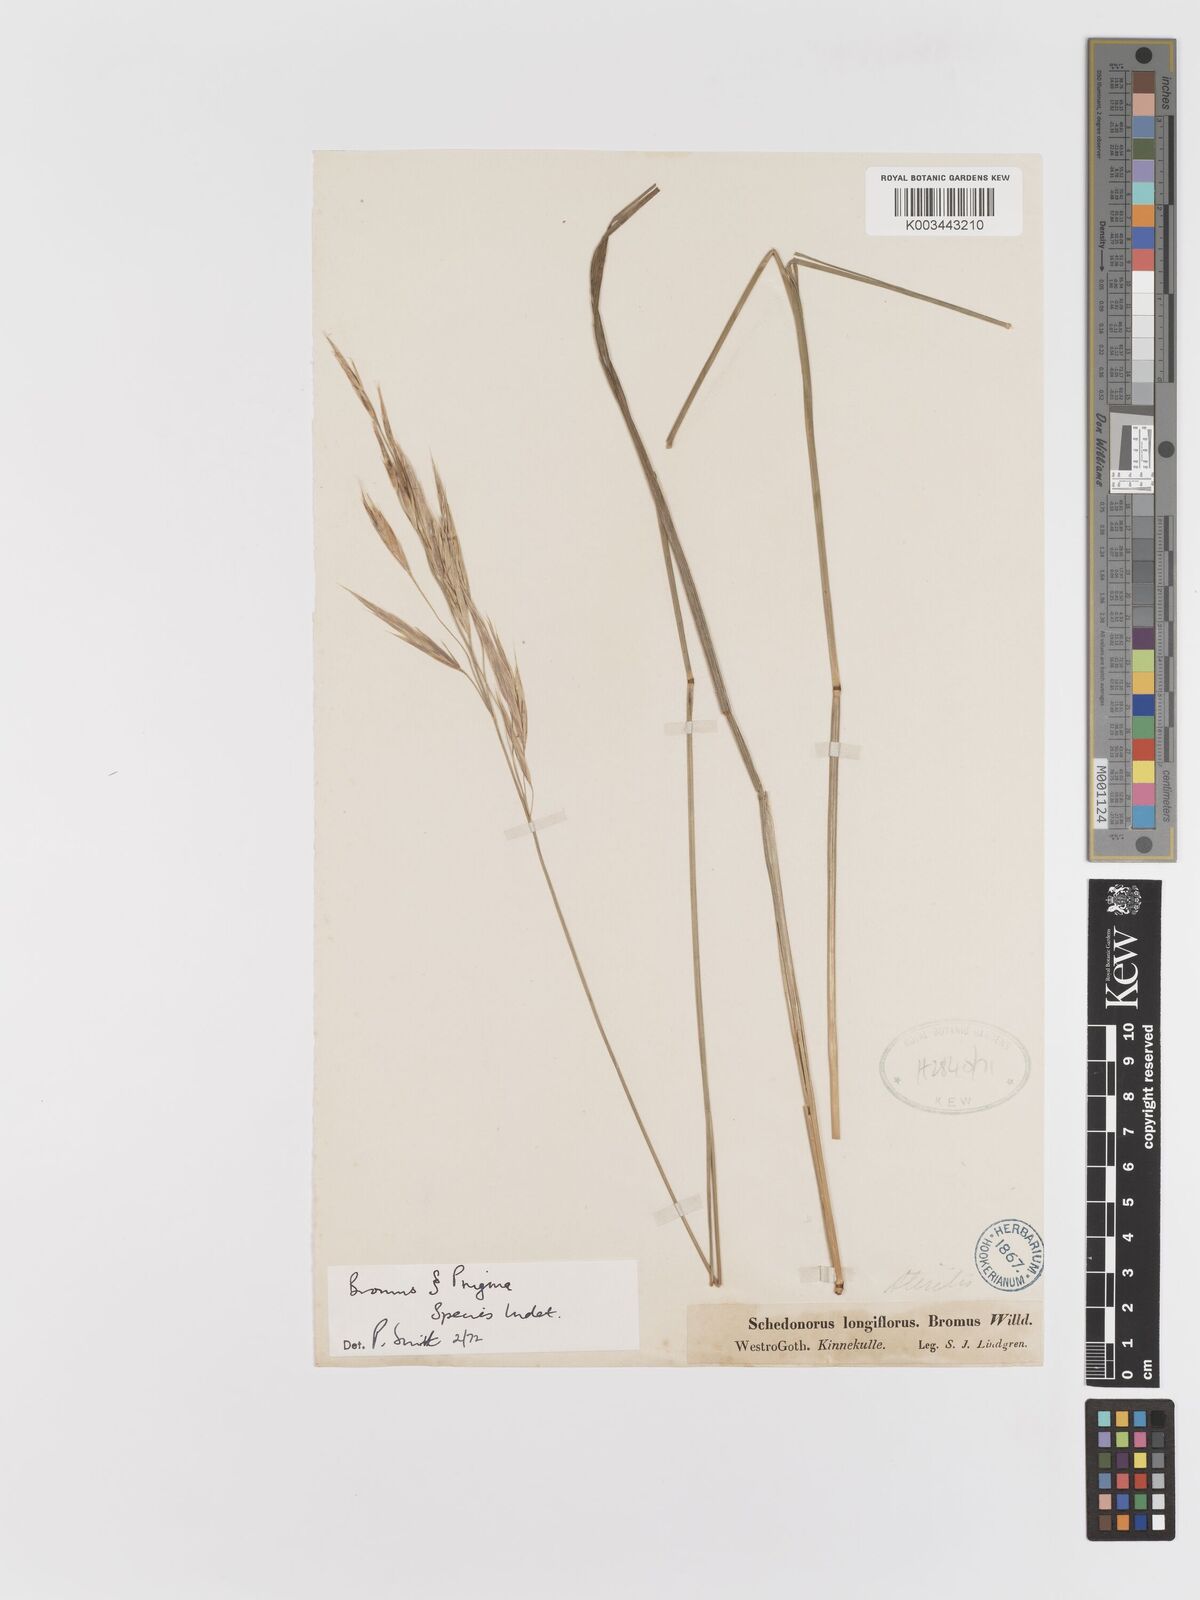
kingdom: Plantae
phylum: Tracheophyta
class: Liliopsida
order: Poales
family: Poaceae
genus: Bromus
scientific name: Bromus
